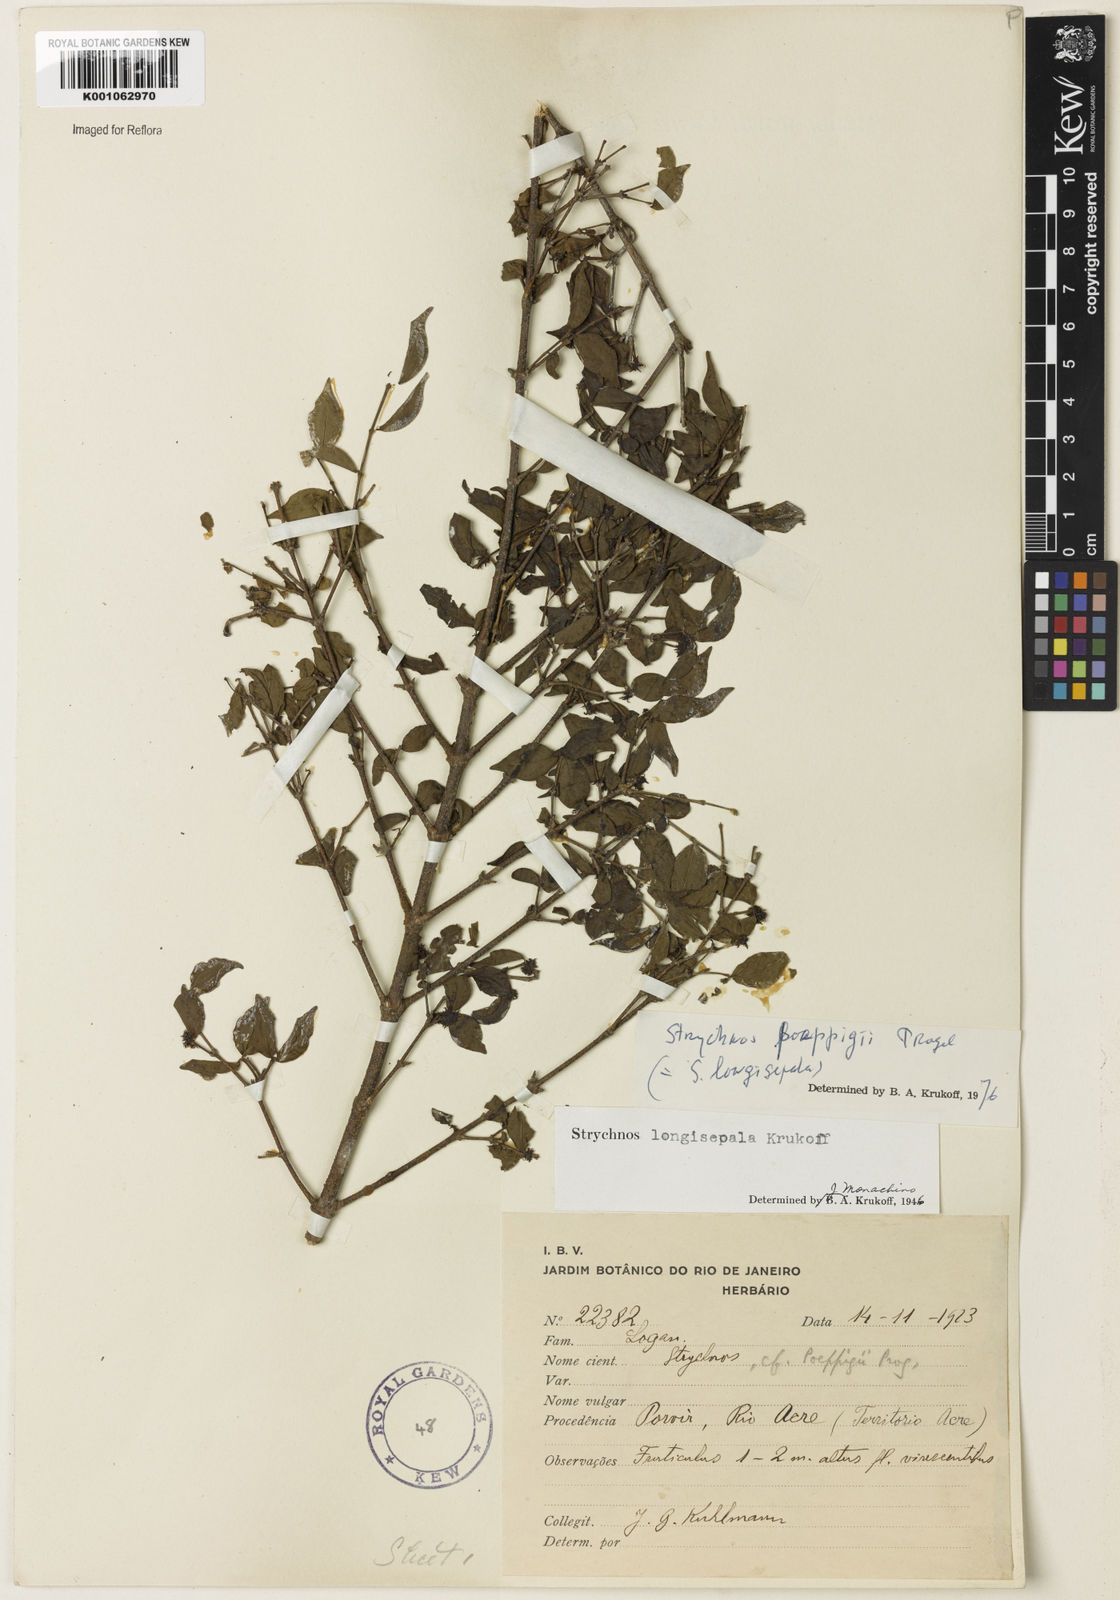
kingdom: Plantae
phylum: Tracheophyta
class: Magnoliopsida
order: Gentianales
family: Loganiaceae
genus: Strychnos
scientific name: Strychnos poeppigii
